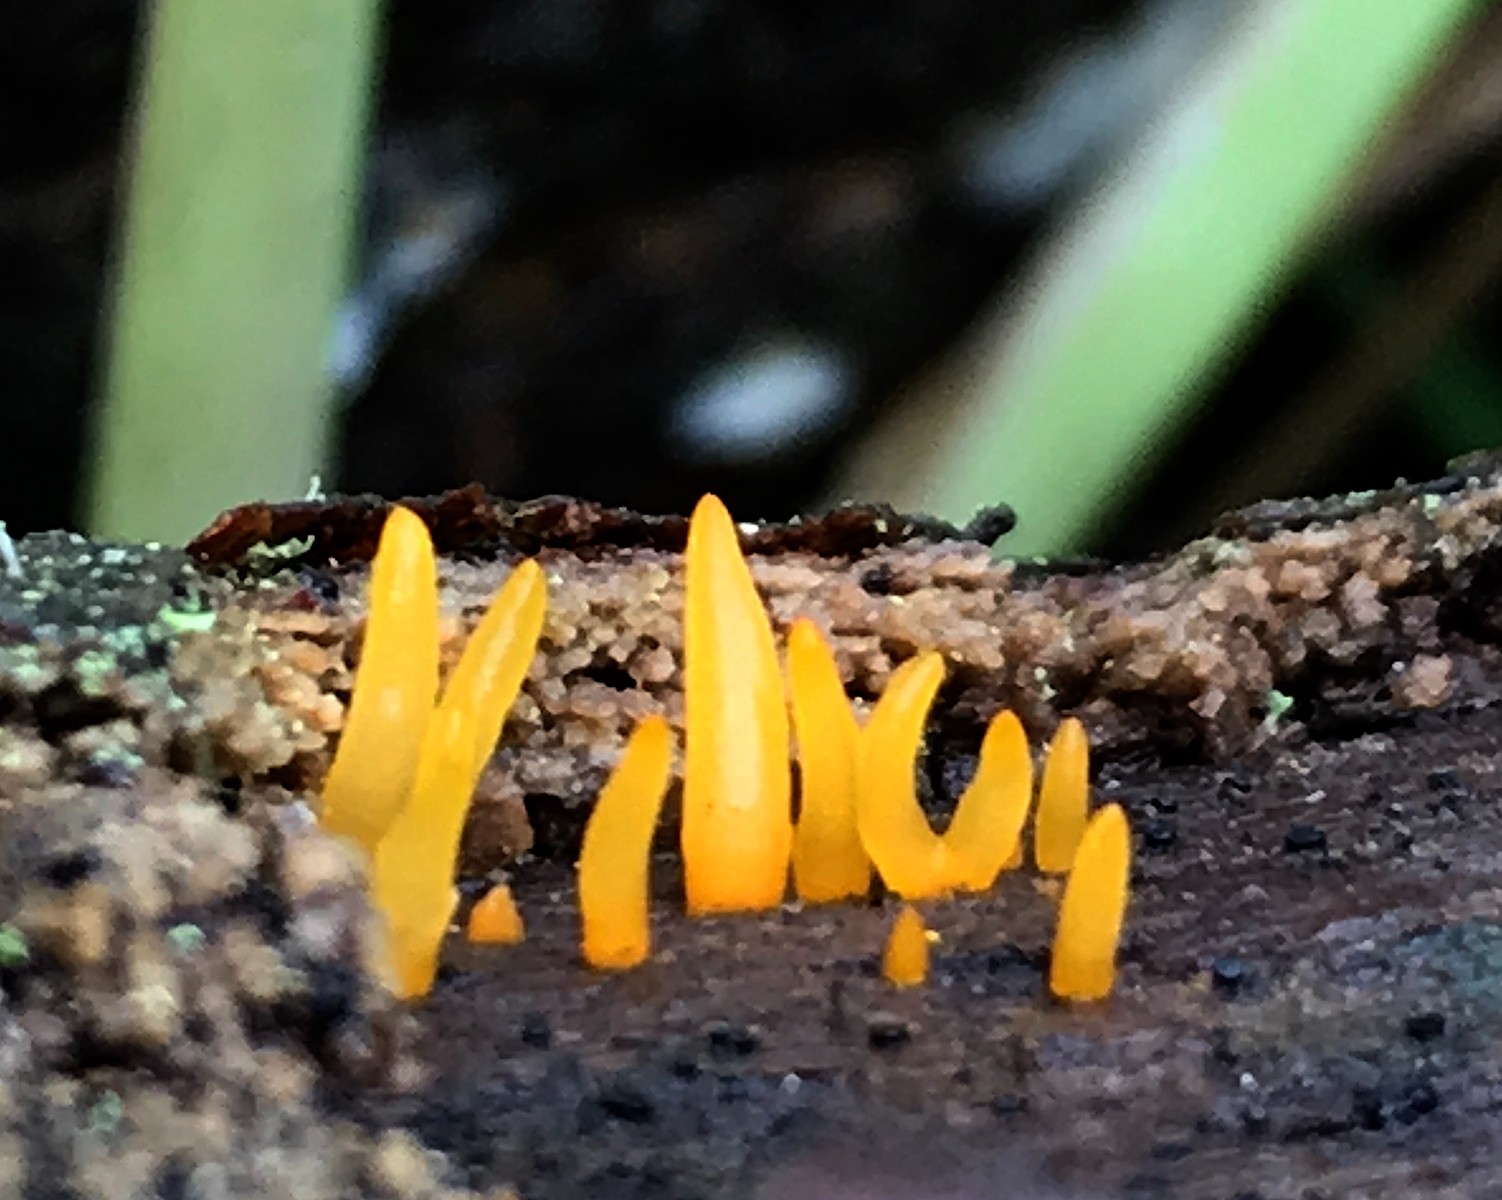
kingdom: Fungi
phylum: Basidiomycota
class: Dacrymycetes
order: Dacrymycetales
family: Dacrymycetaceae
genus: Calocera
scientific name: Calocera cornea
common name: liden guldgaffel
